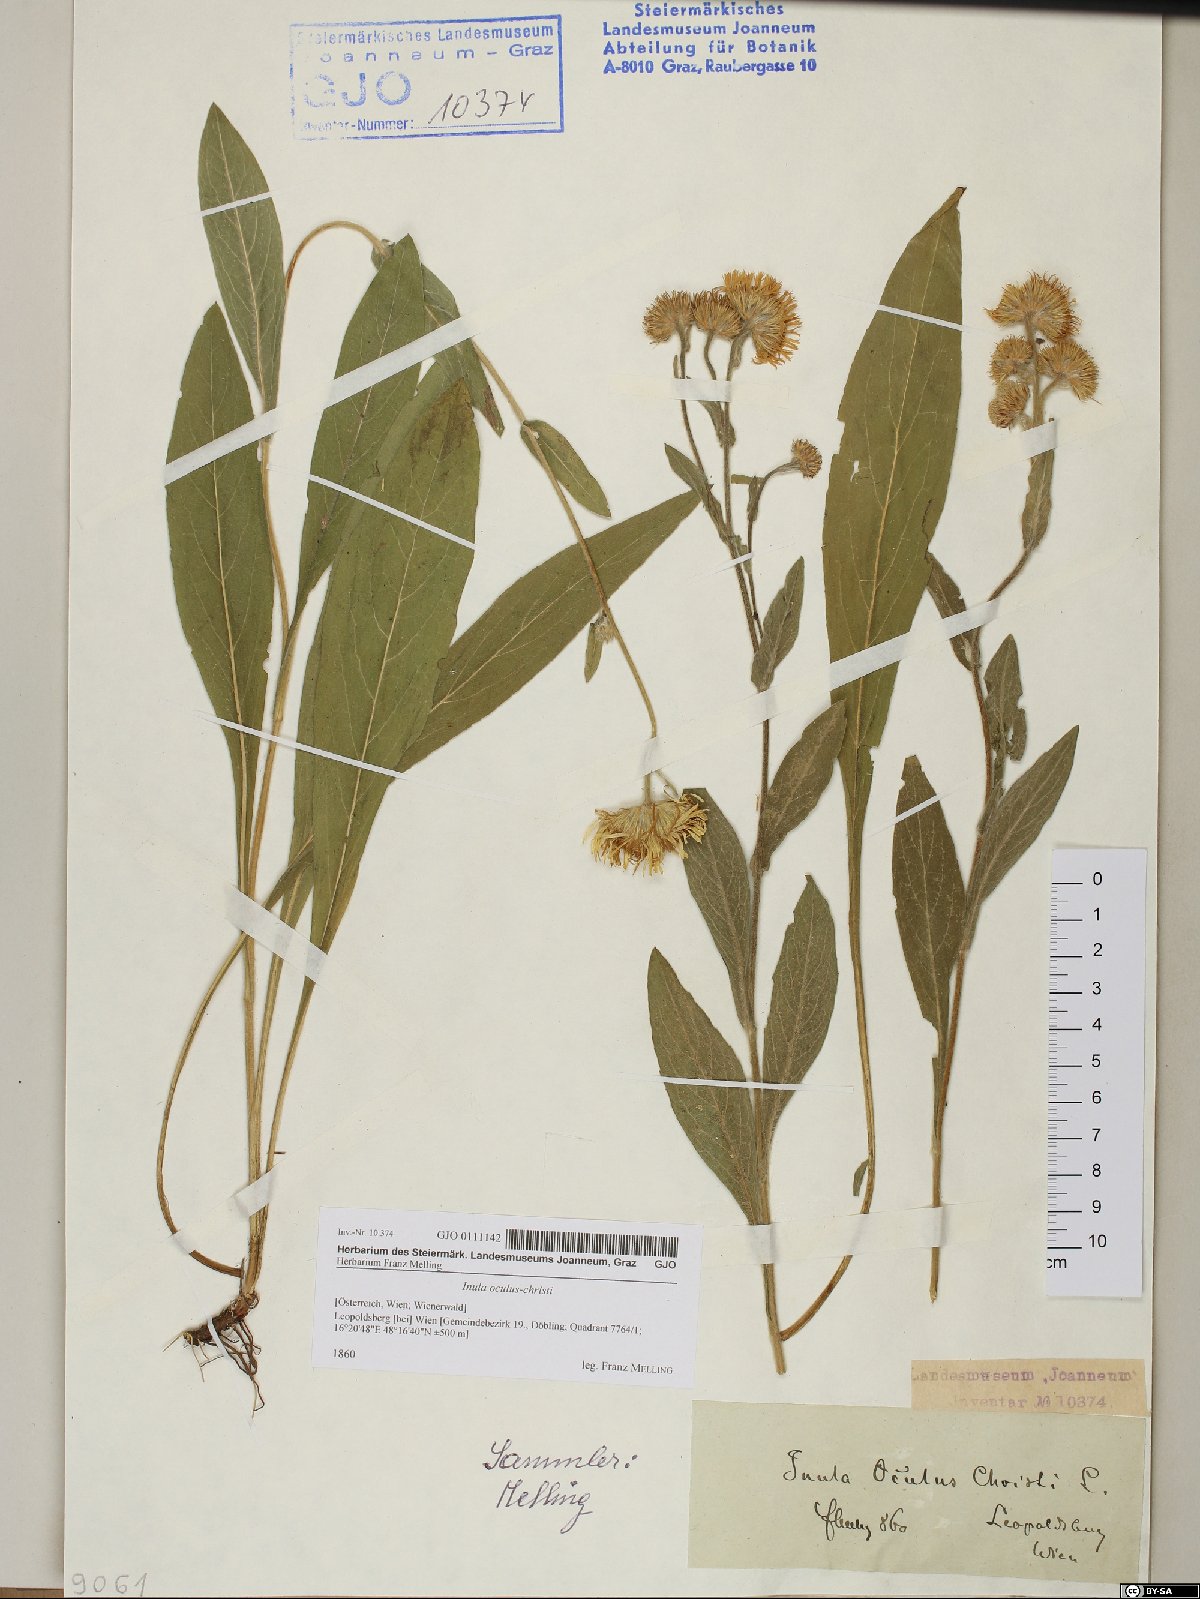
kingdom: Plantae
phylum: Tracheophyta
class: Magnoliopsida
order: Asterales
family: Asteraceae
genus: Pentanema
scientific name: Pentanema oculus-christi
